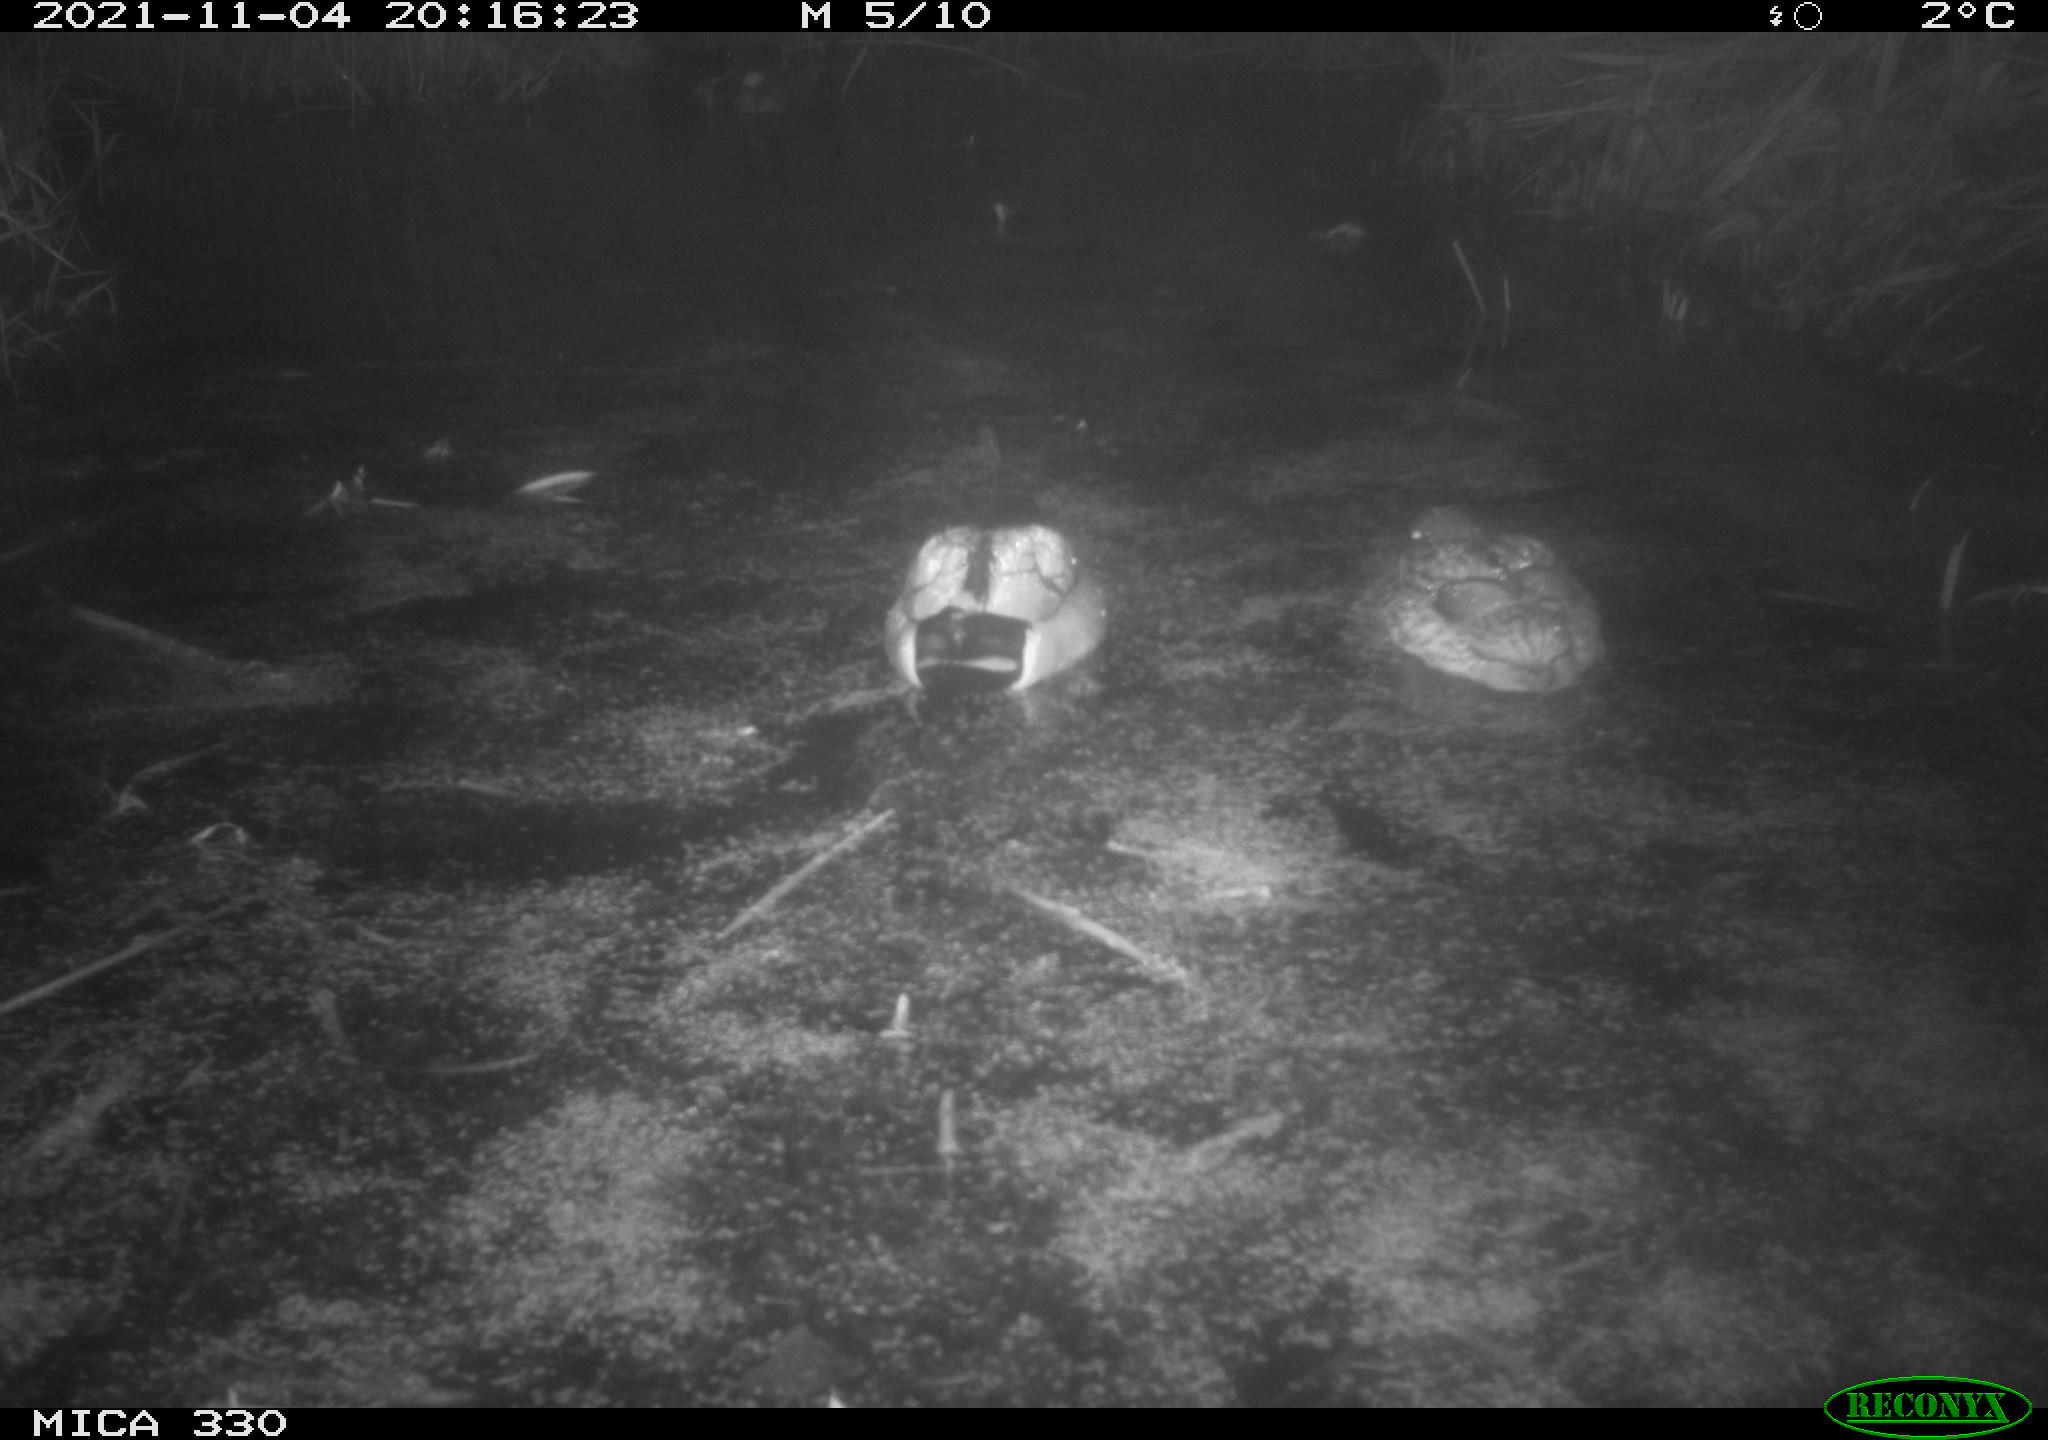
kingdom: Animalia
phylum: Chordata
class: Aves
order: Anseriformes
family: Anatidae
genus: Anas
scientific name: Anas platyrhynchos
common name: Mallard
